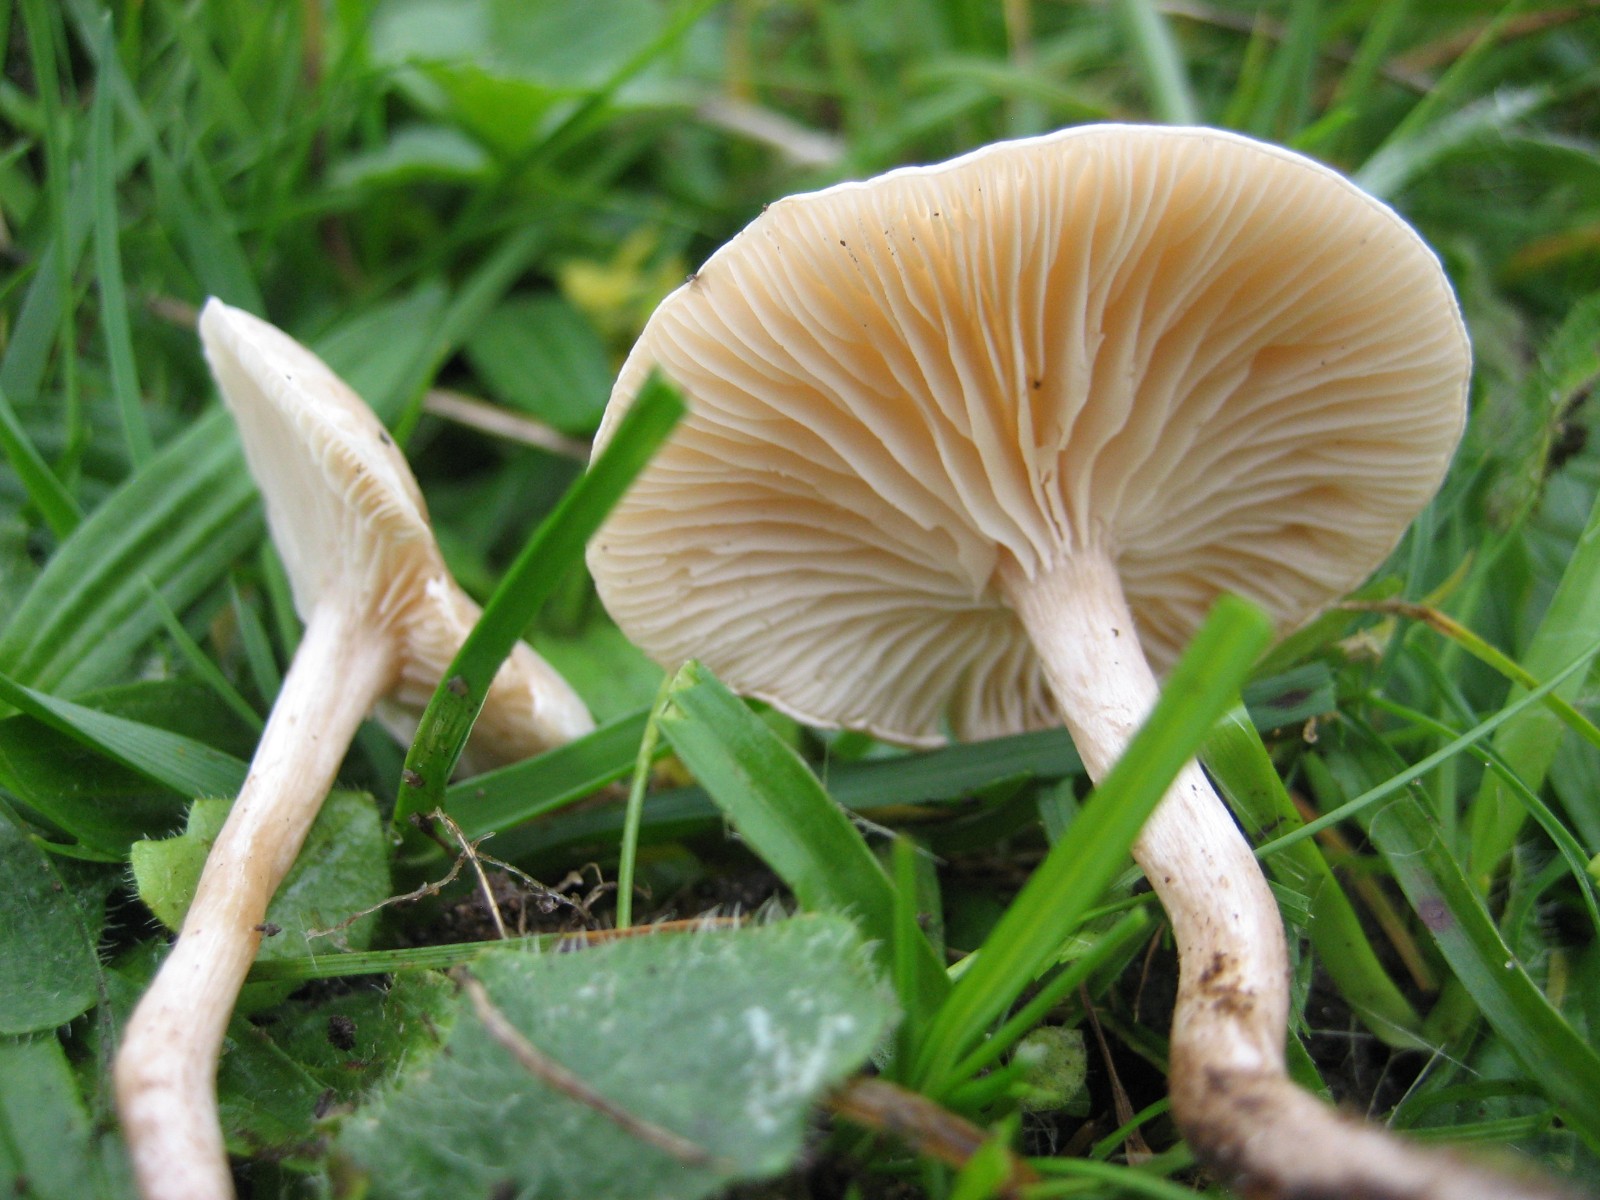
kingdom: Fungi
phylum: Basidiomycota
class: Agaricomycetes
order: Agaricales
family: Tricholomataceae
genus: Clitocybe
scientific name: Clitocybe rivulosa
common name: eng-tragthat
